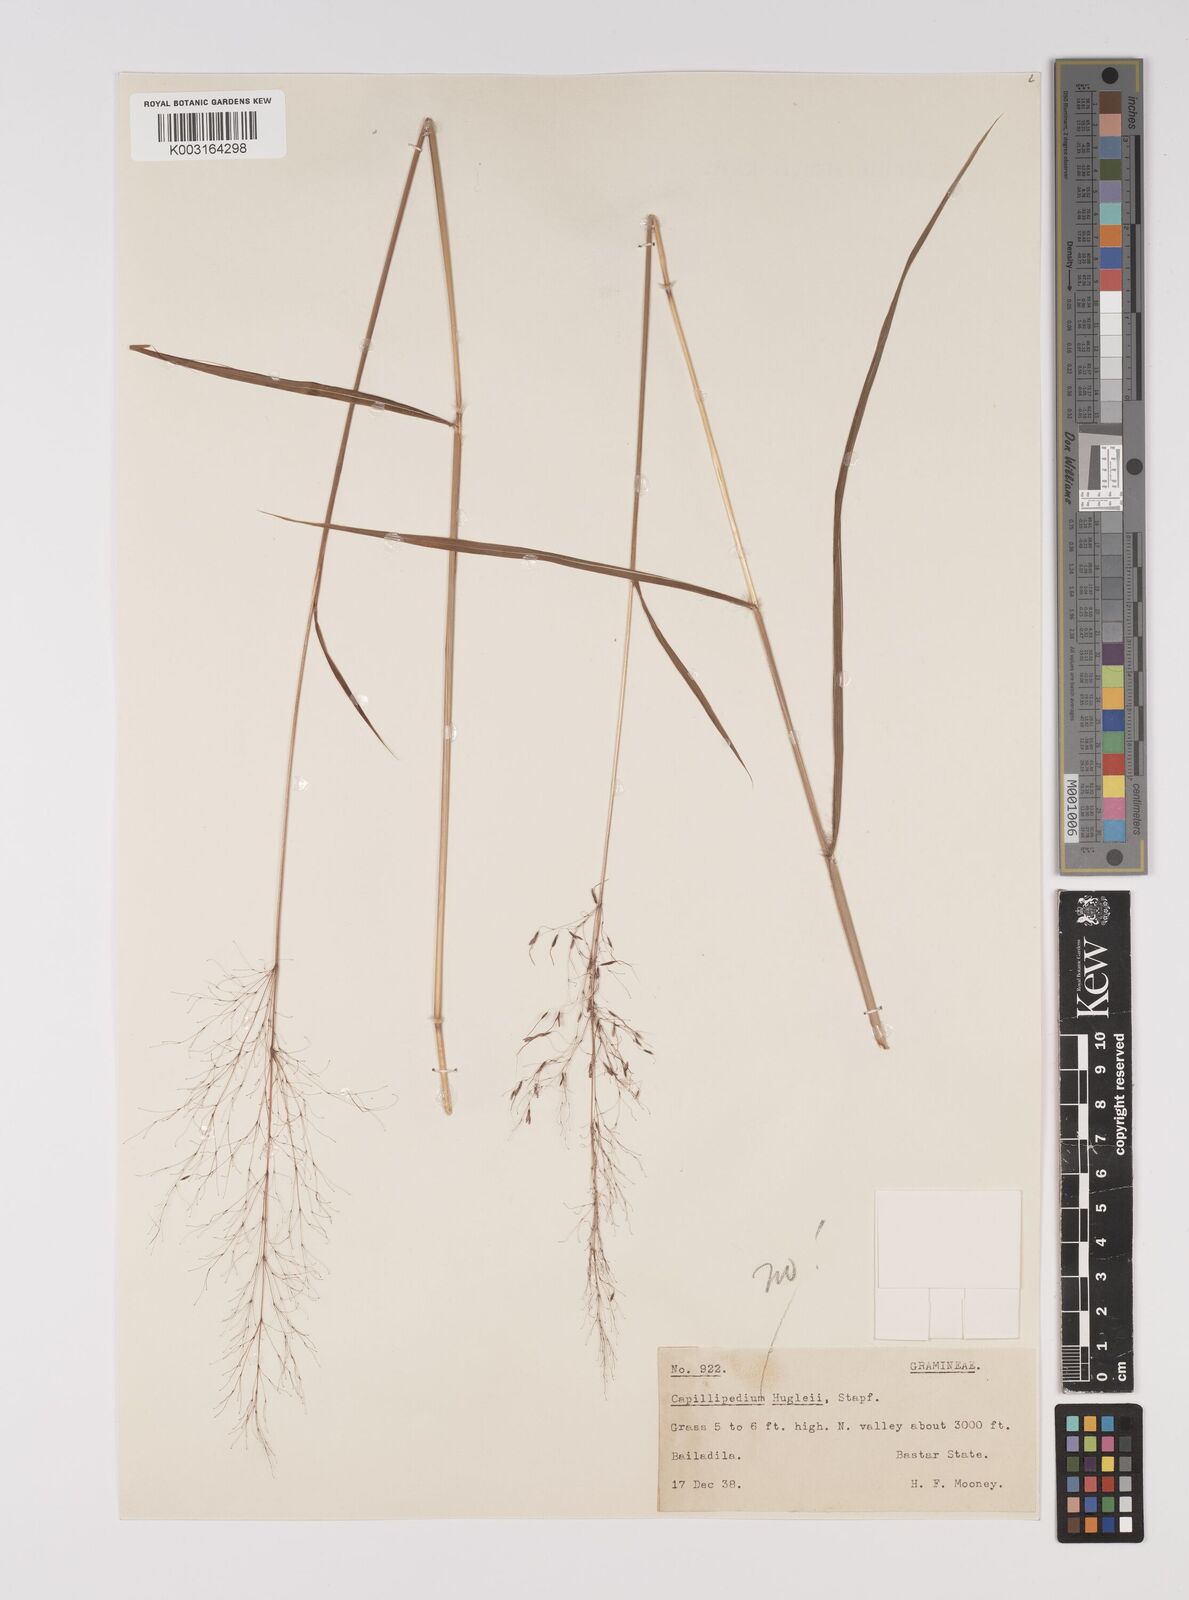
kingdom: Plantae
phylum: Tracheophyta
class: Liliopsida
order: Poales
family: Poaceae
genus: Capillipedium
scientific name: Capillipedium parviflorum
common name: Golden-beard
